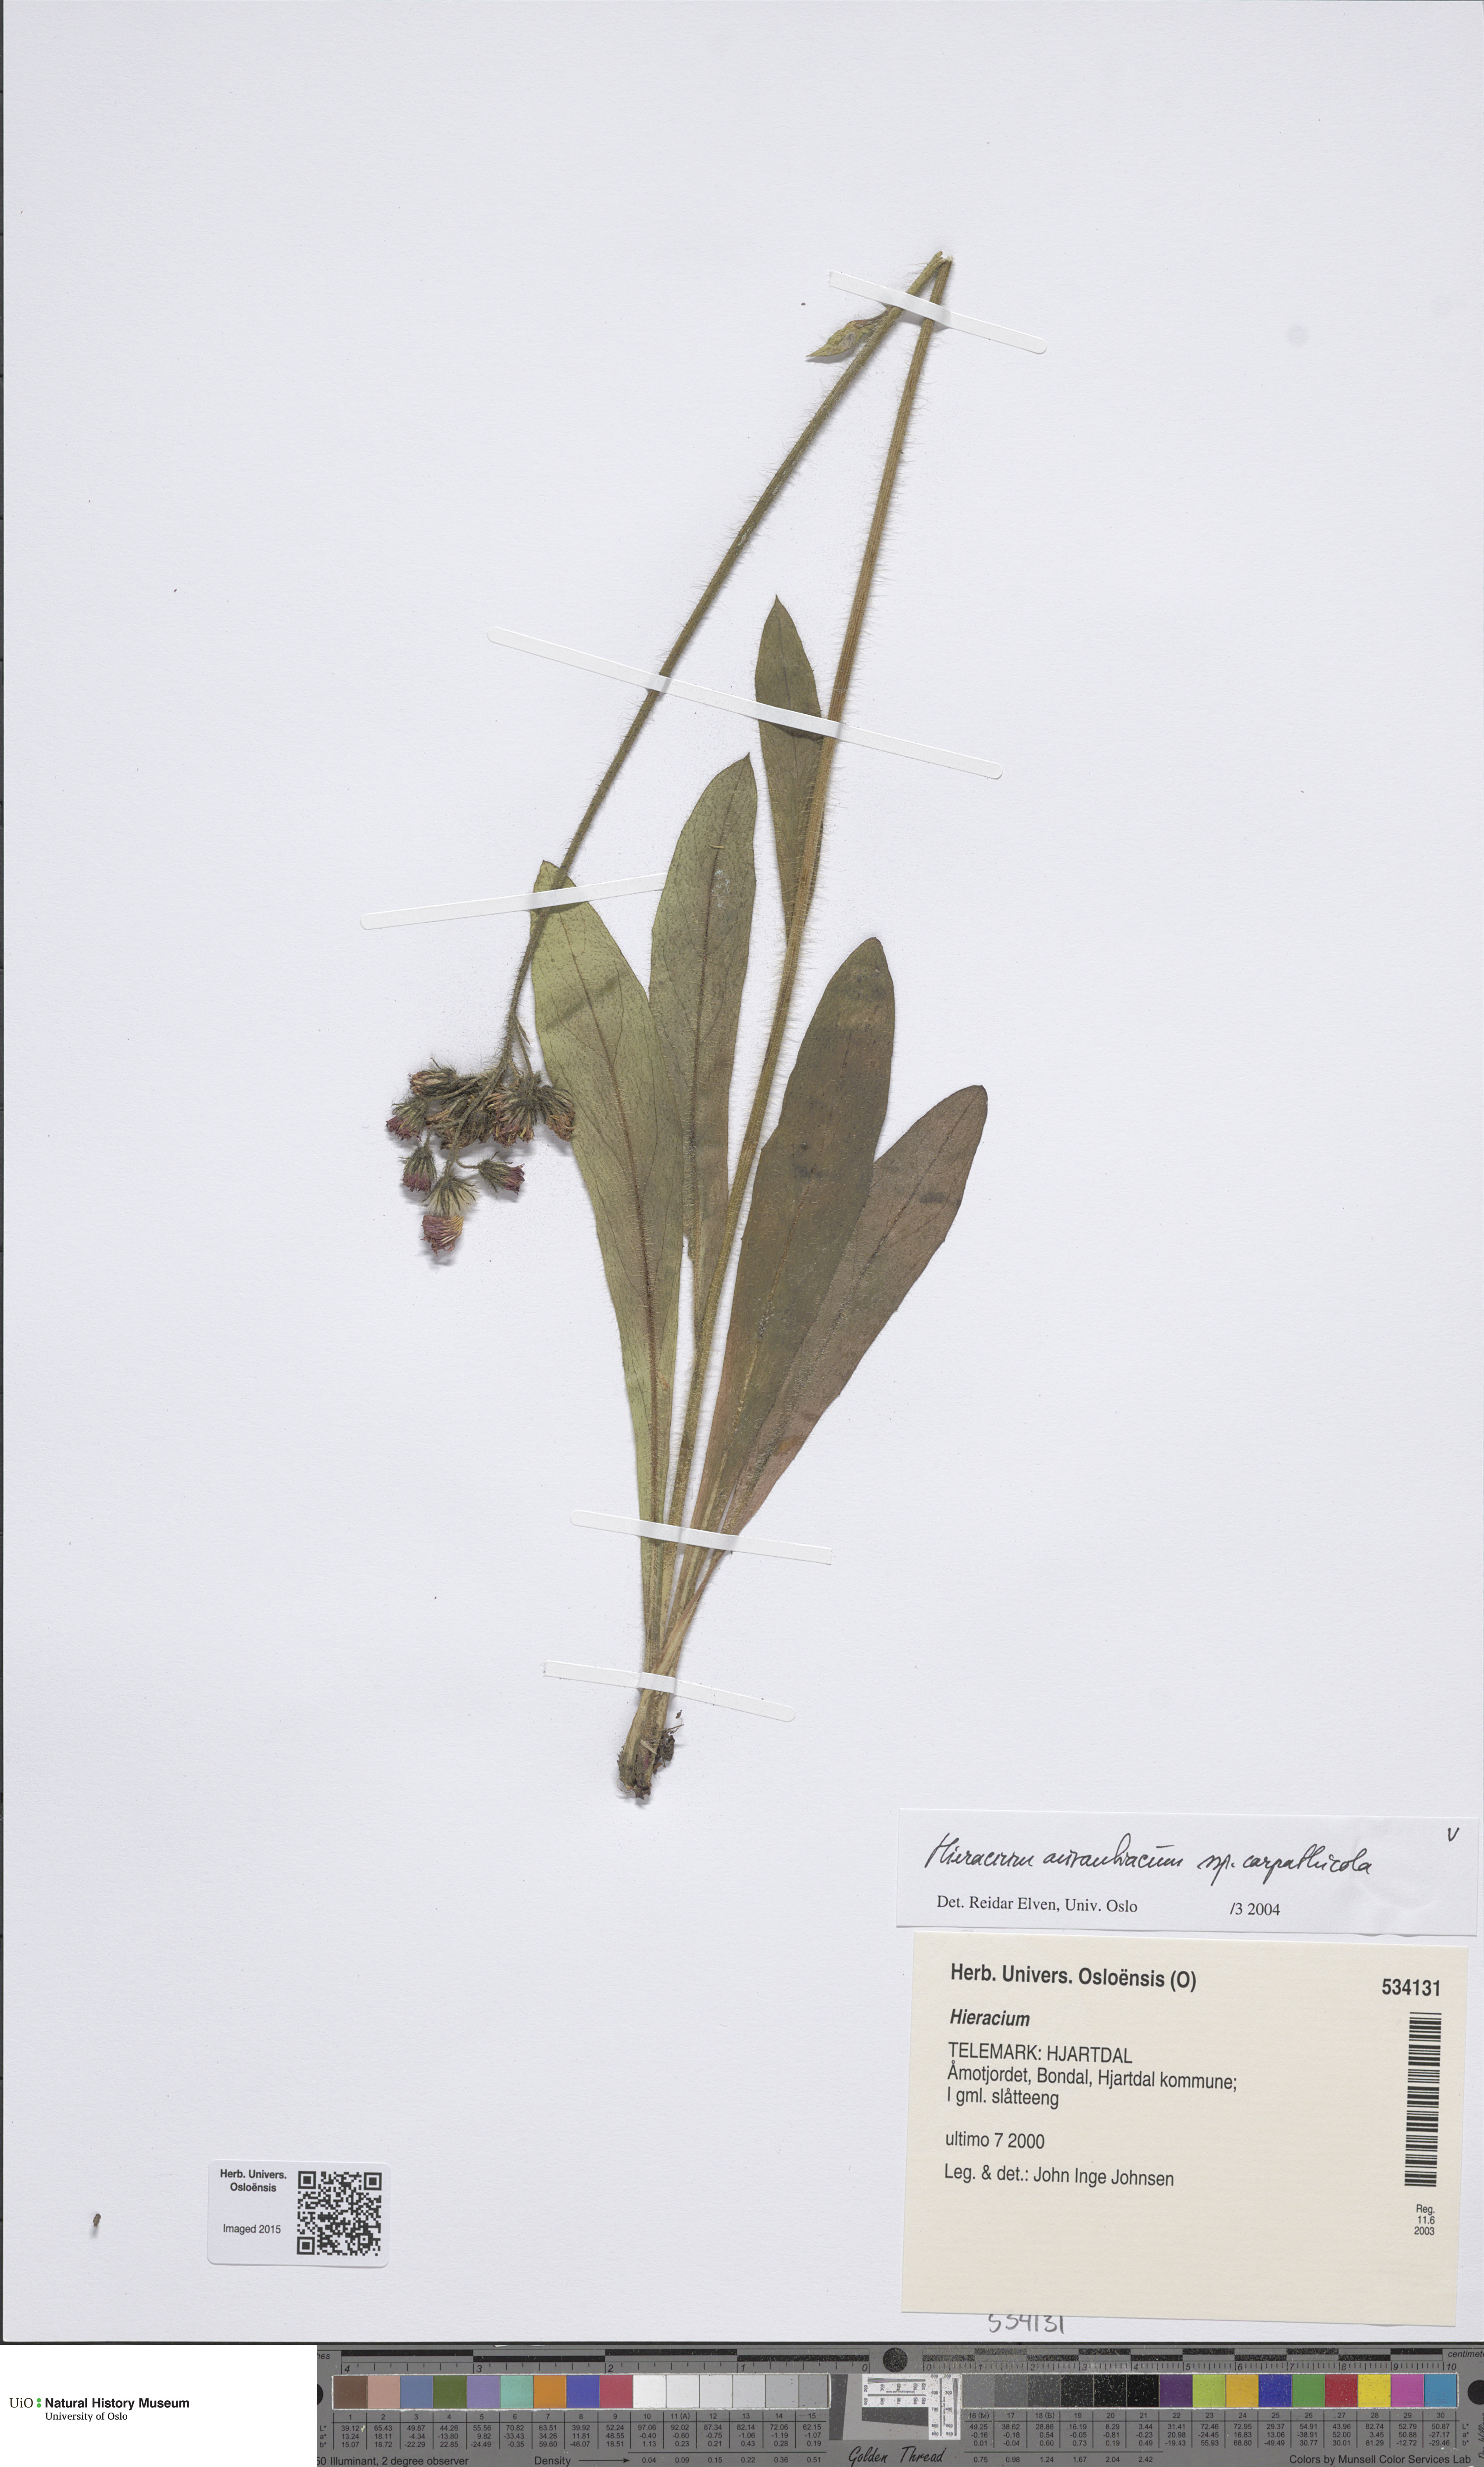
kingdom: Plantae
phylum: Tracheophyta
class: Magnoliopsida
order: Asterales
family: Asteraceae
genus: Pilosella
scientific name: Pilosella aurantiaca
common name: Fox-and-cubs
